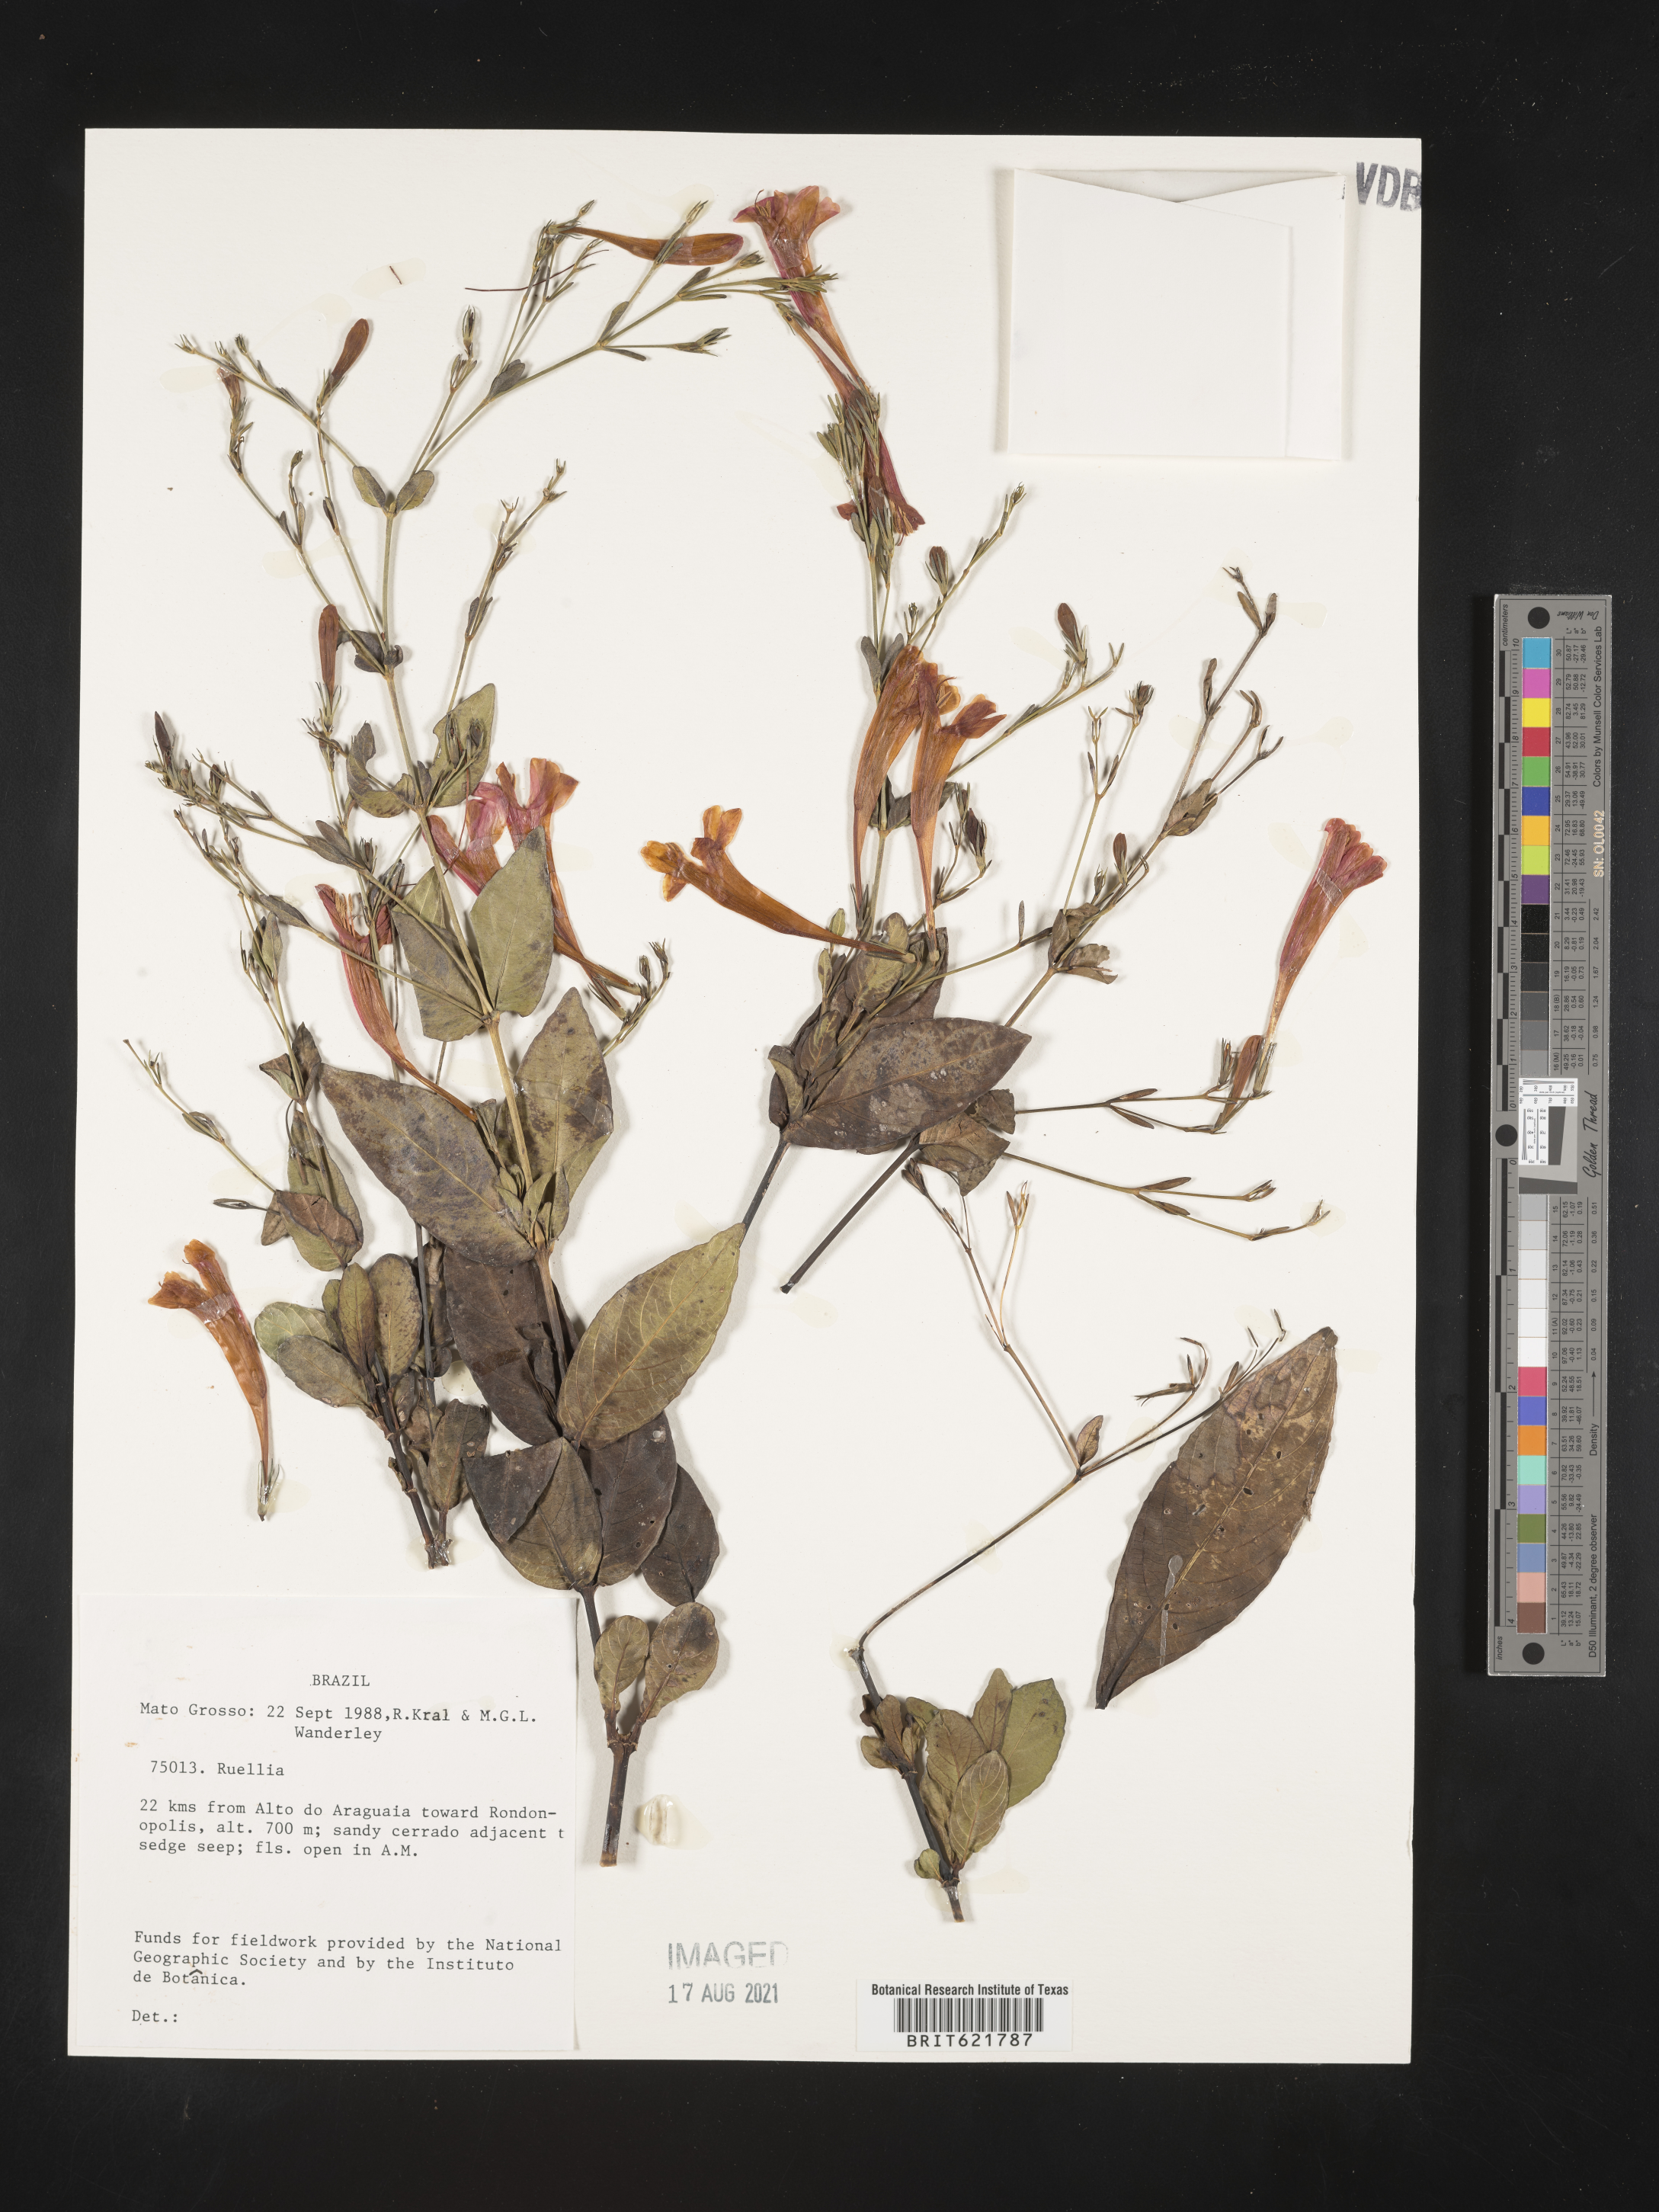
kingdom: Plantae
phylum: Tracheophyta
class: Magnoliopsida
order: Lamiales
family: Acanthaceae
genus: Ruellia
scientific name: Ruellia
